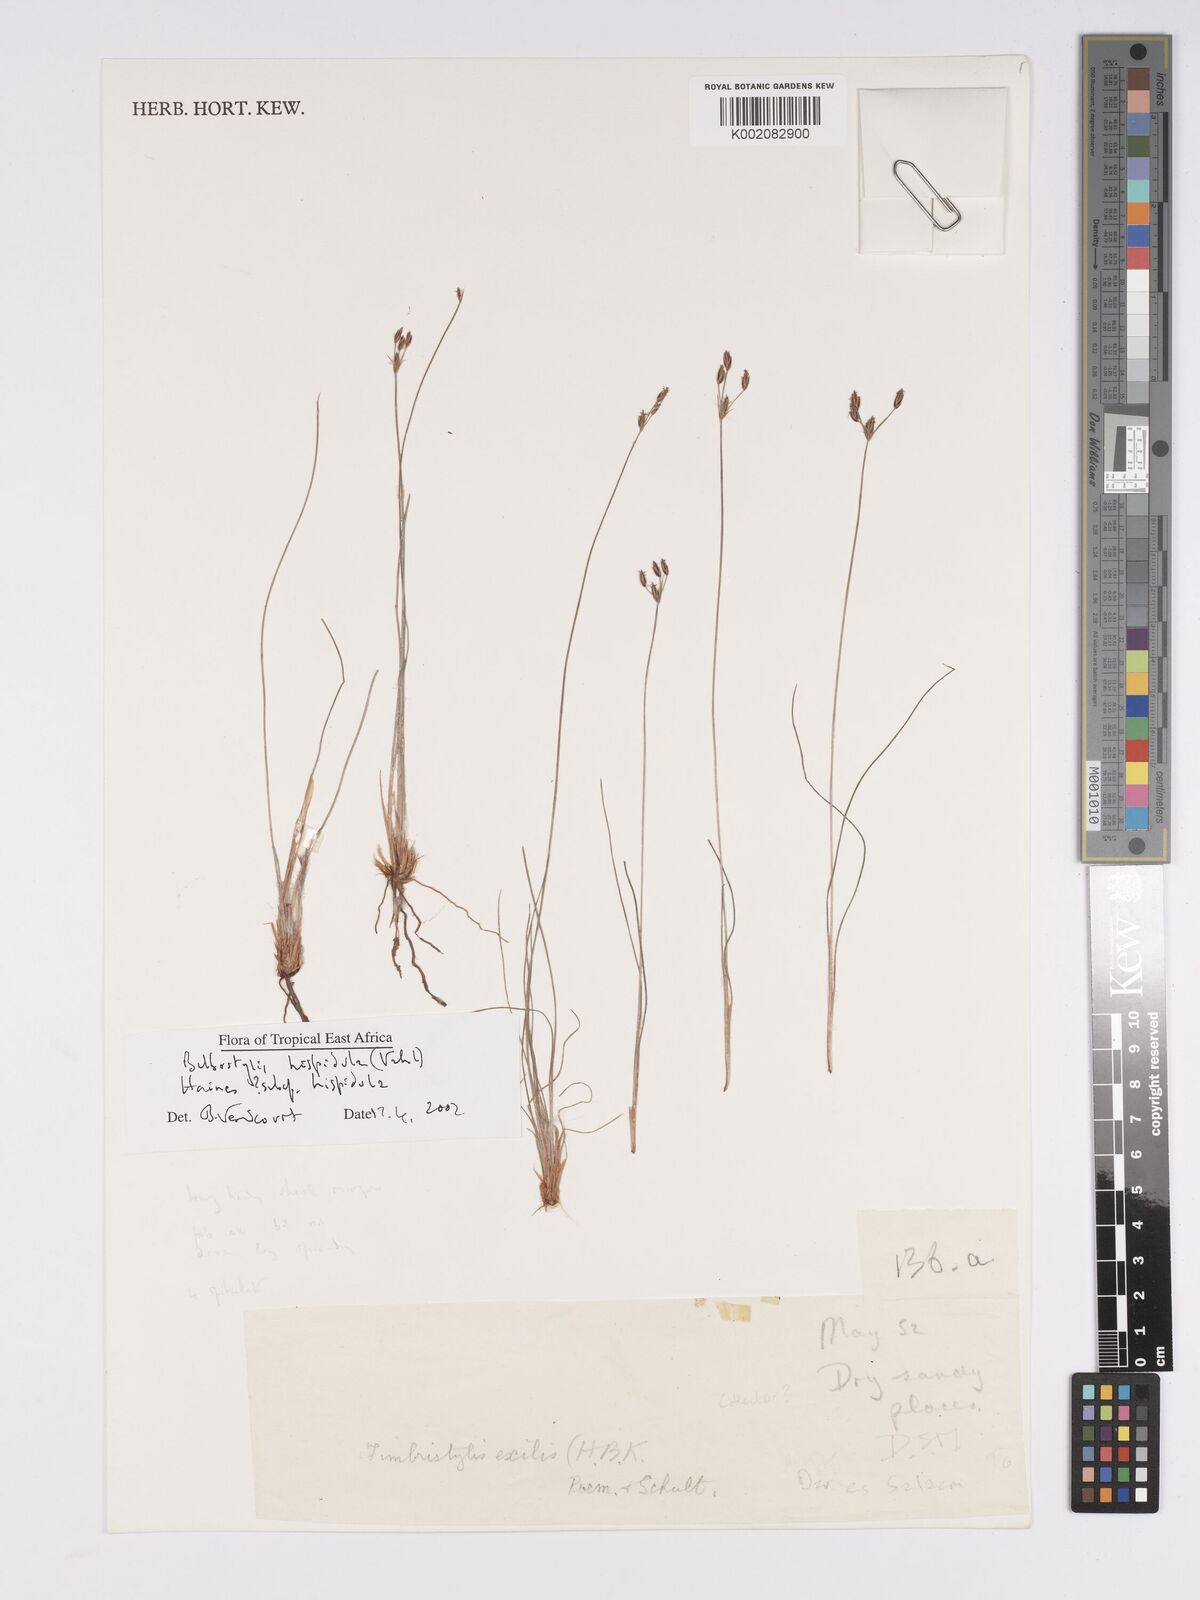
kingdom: Plantae
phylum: Tracheophyta
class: Liliopsida
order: Poales
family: Cyperaceae
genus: Bulbostylis
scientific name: Bulbostylis hispidula
